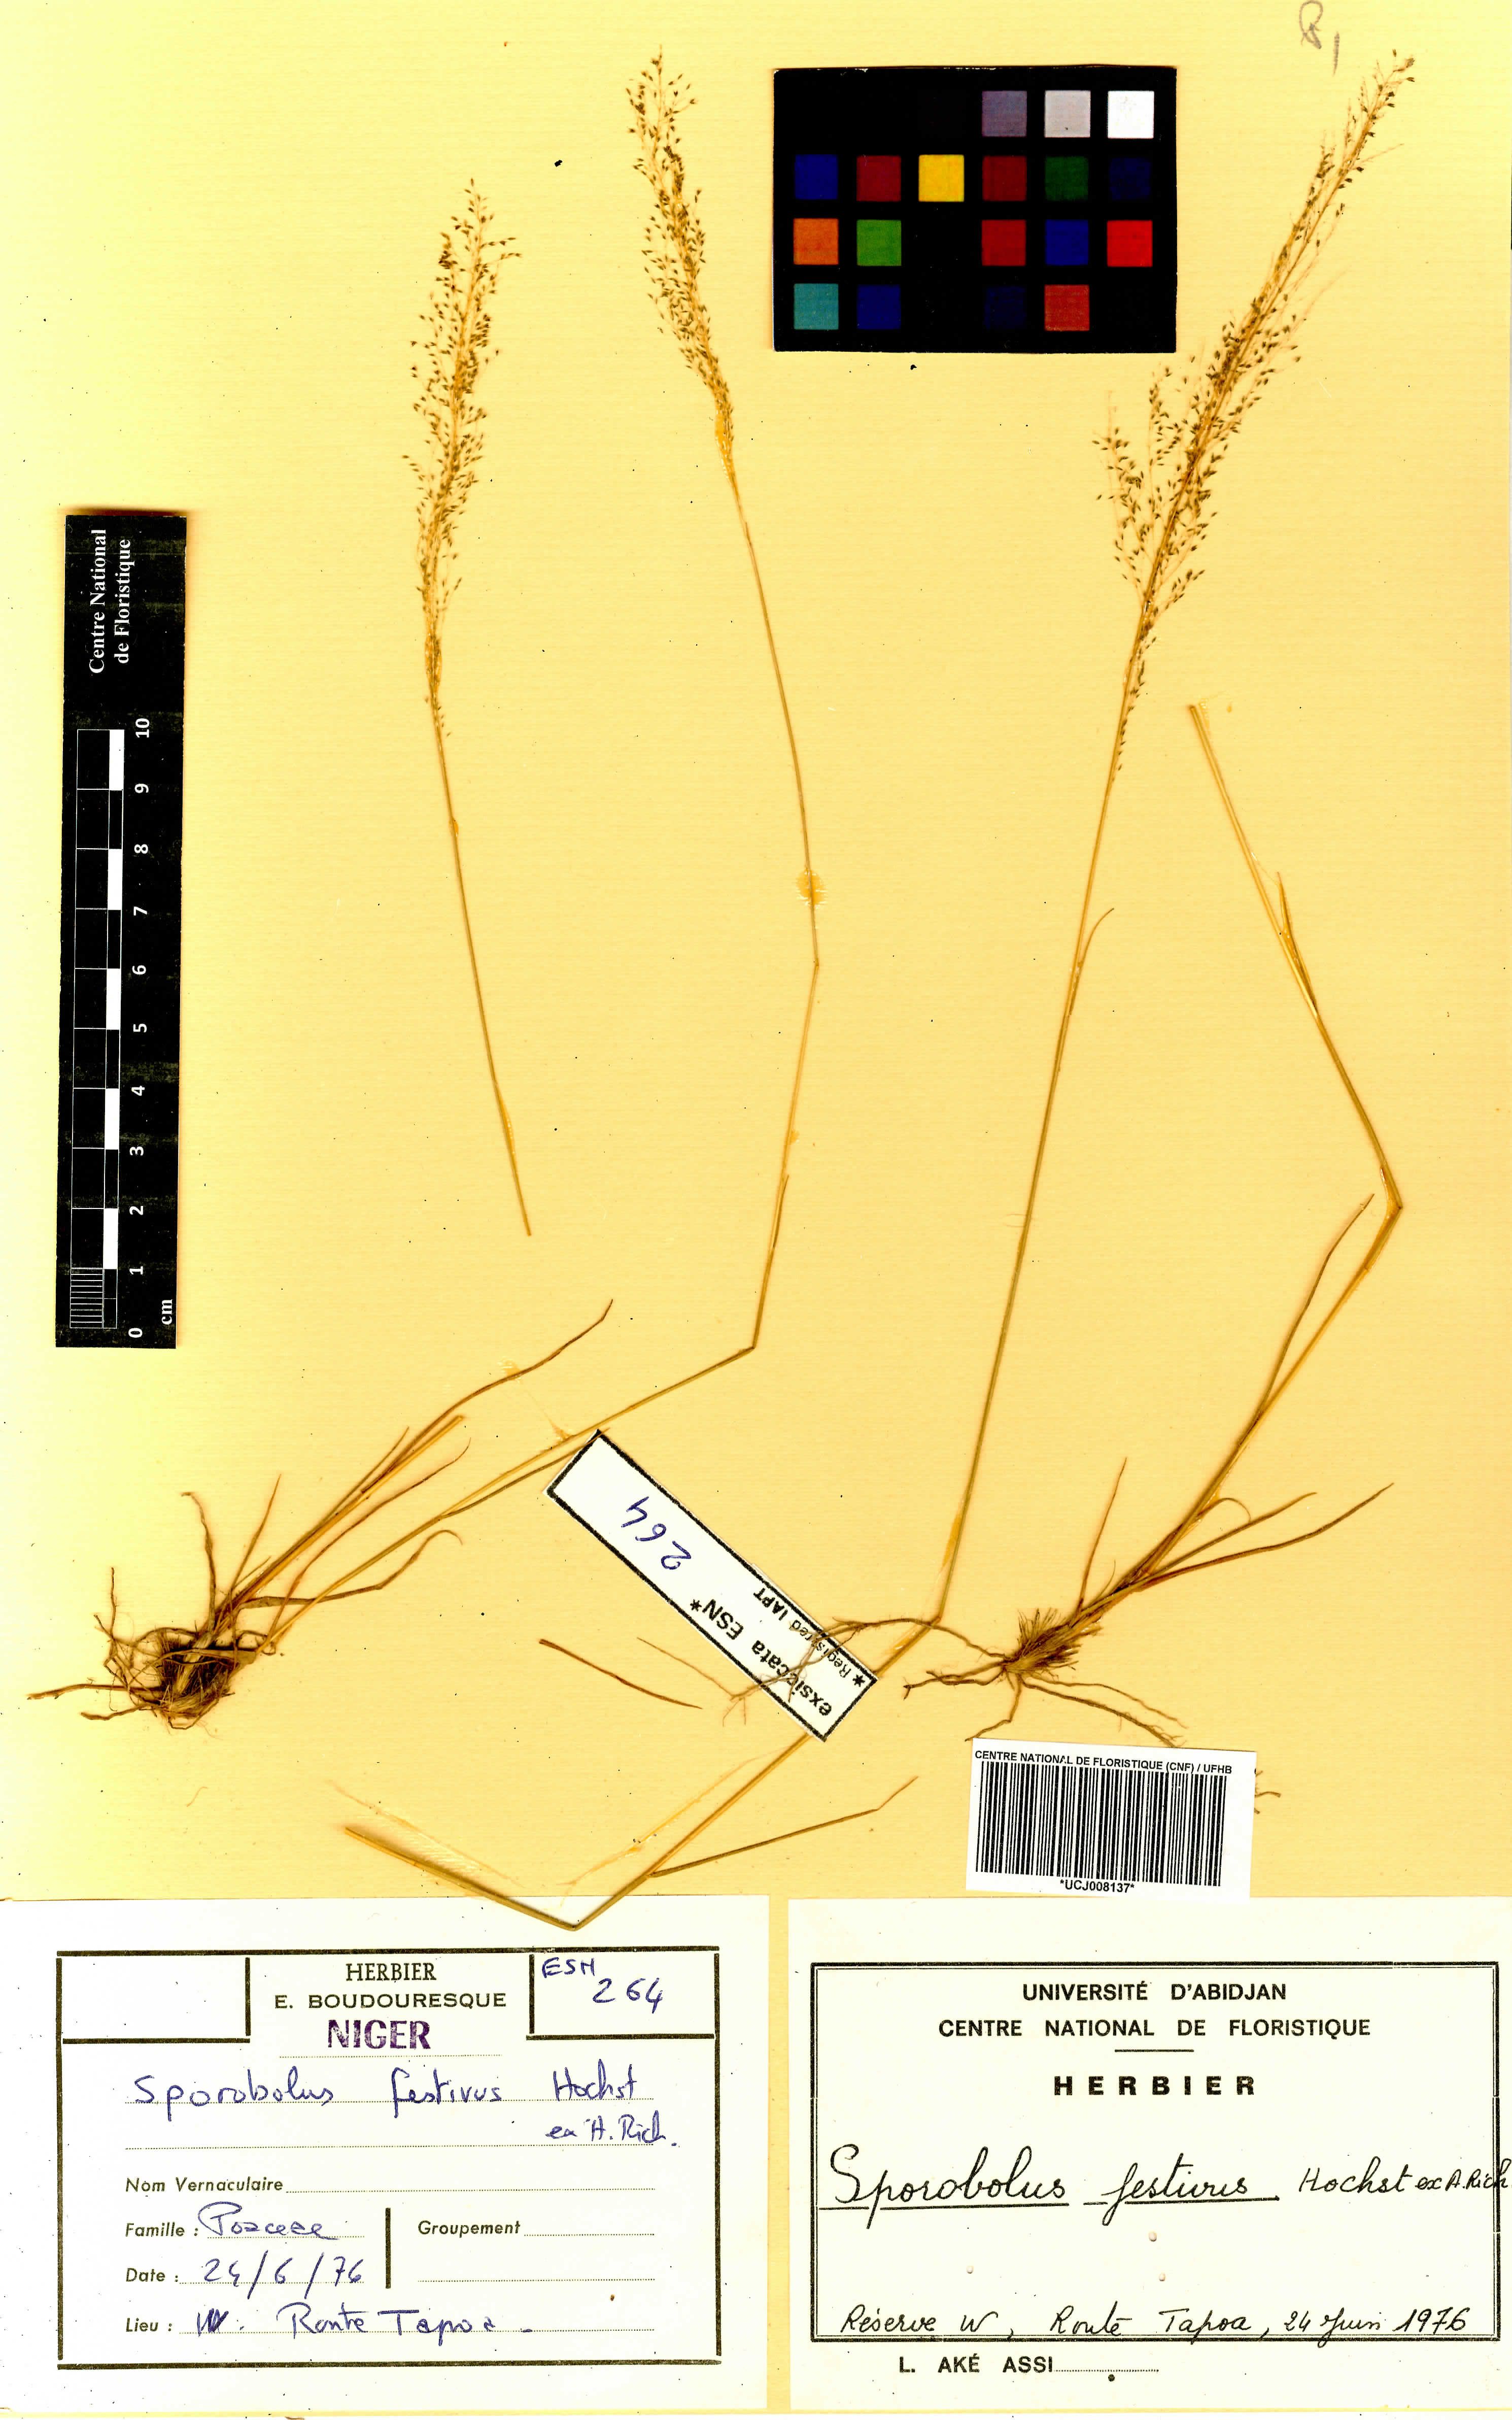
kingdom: Plantae
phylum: Tracheophyta
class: Liliopsida
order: Poales
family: Poaceae
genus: Sporobolus
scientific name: Sporobolus festivus
